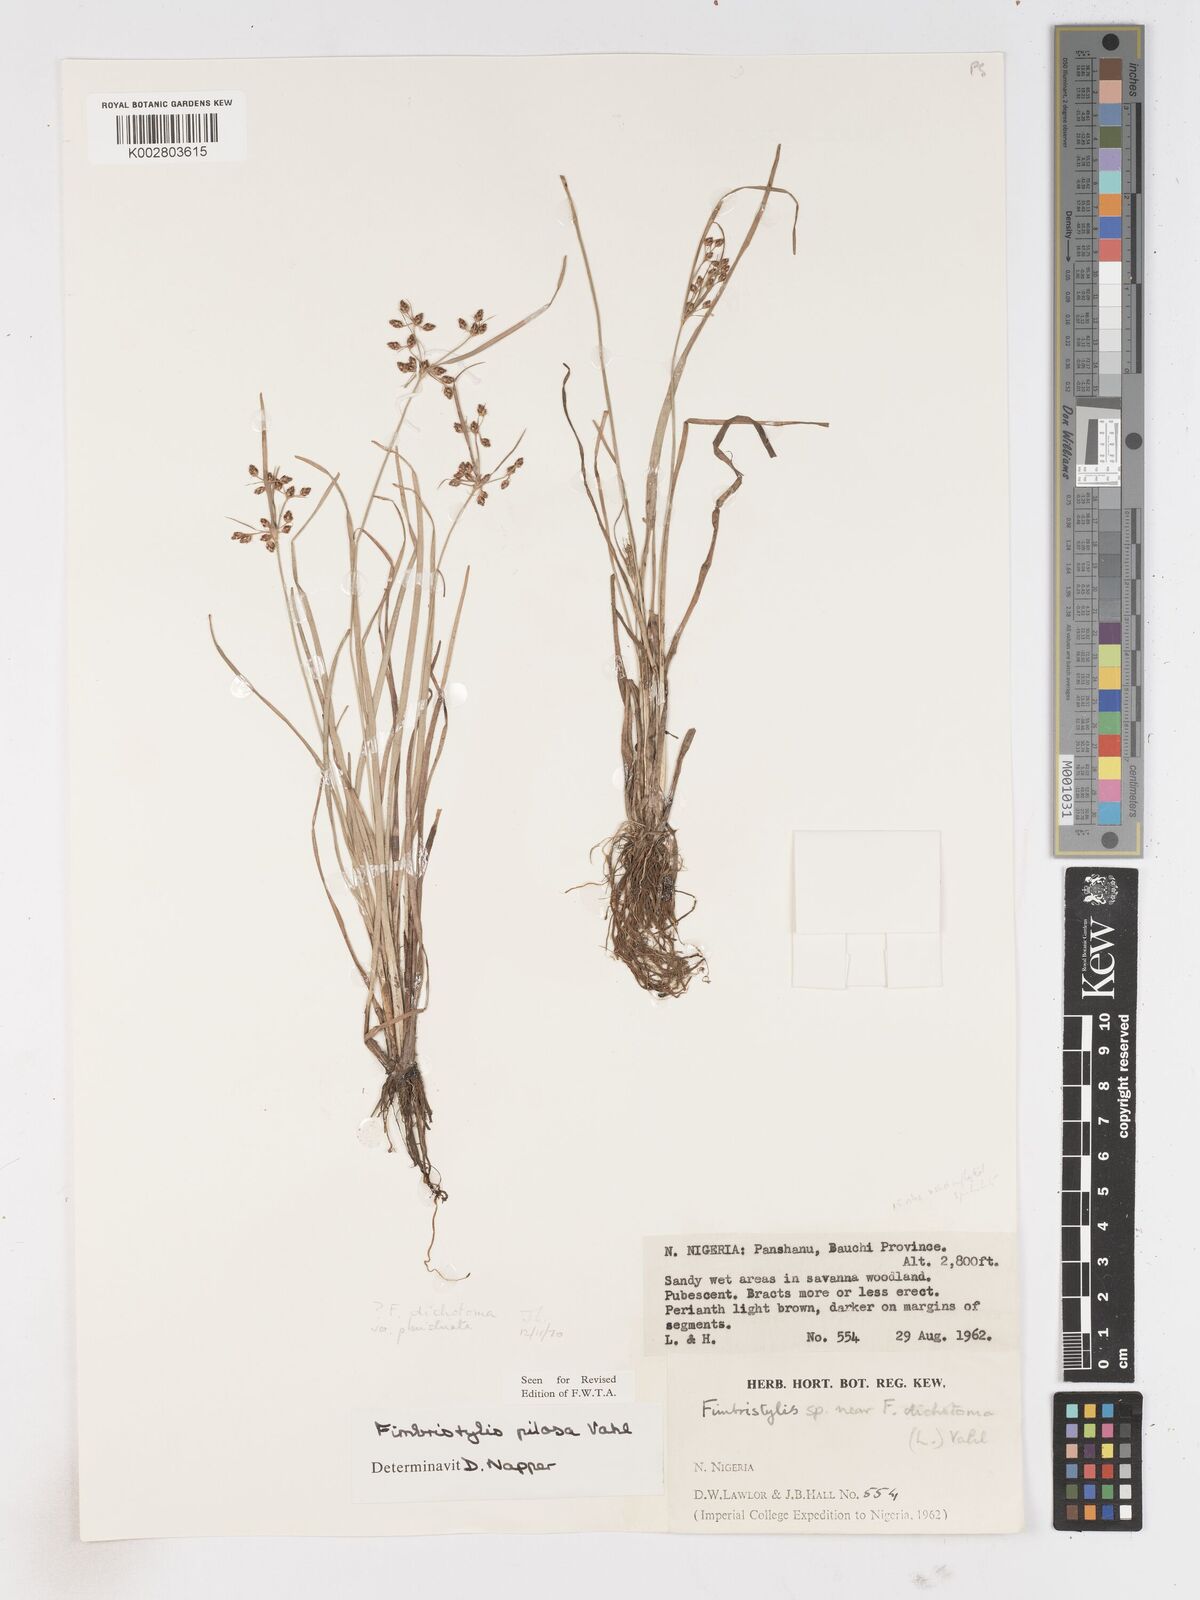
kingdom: Plantae
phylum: Tracheophyta
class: Liliopsida
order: Poales
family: Cyperaceae
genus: Fimbristylis
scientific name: Fimbristylis dichotoma
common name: Forked fimbry
